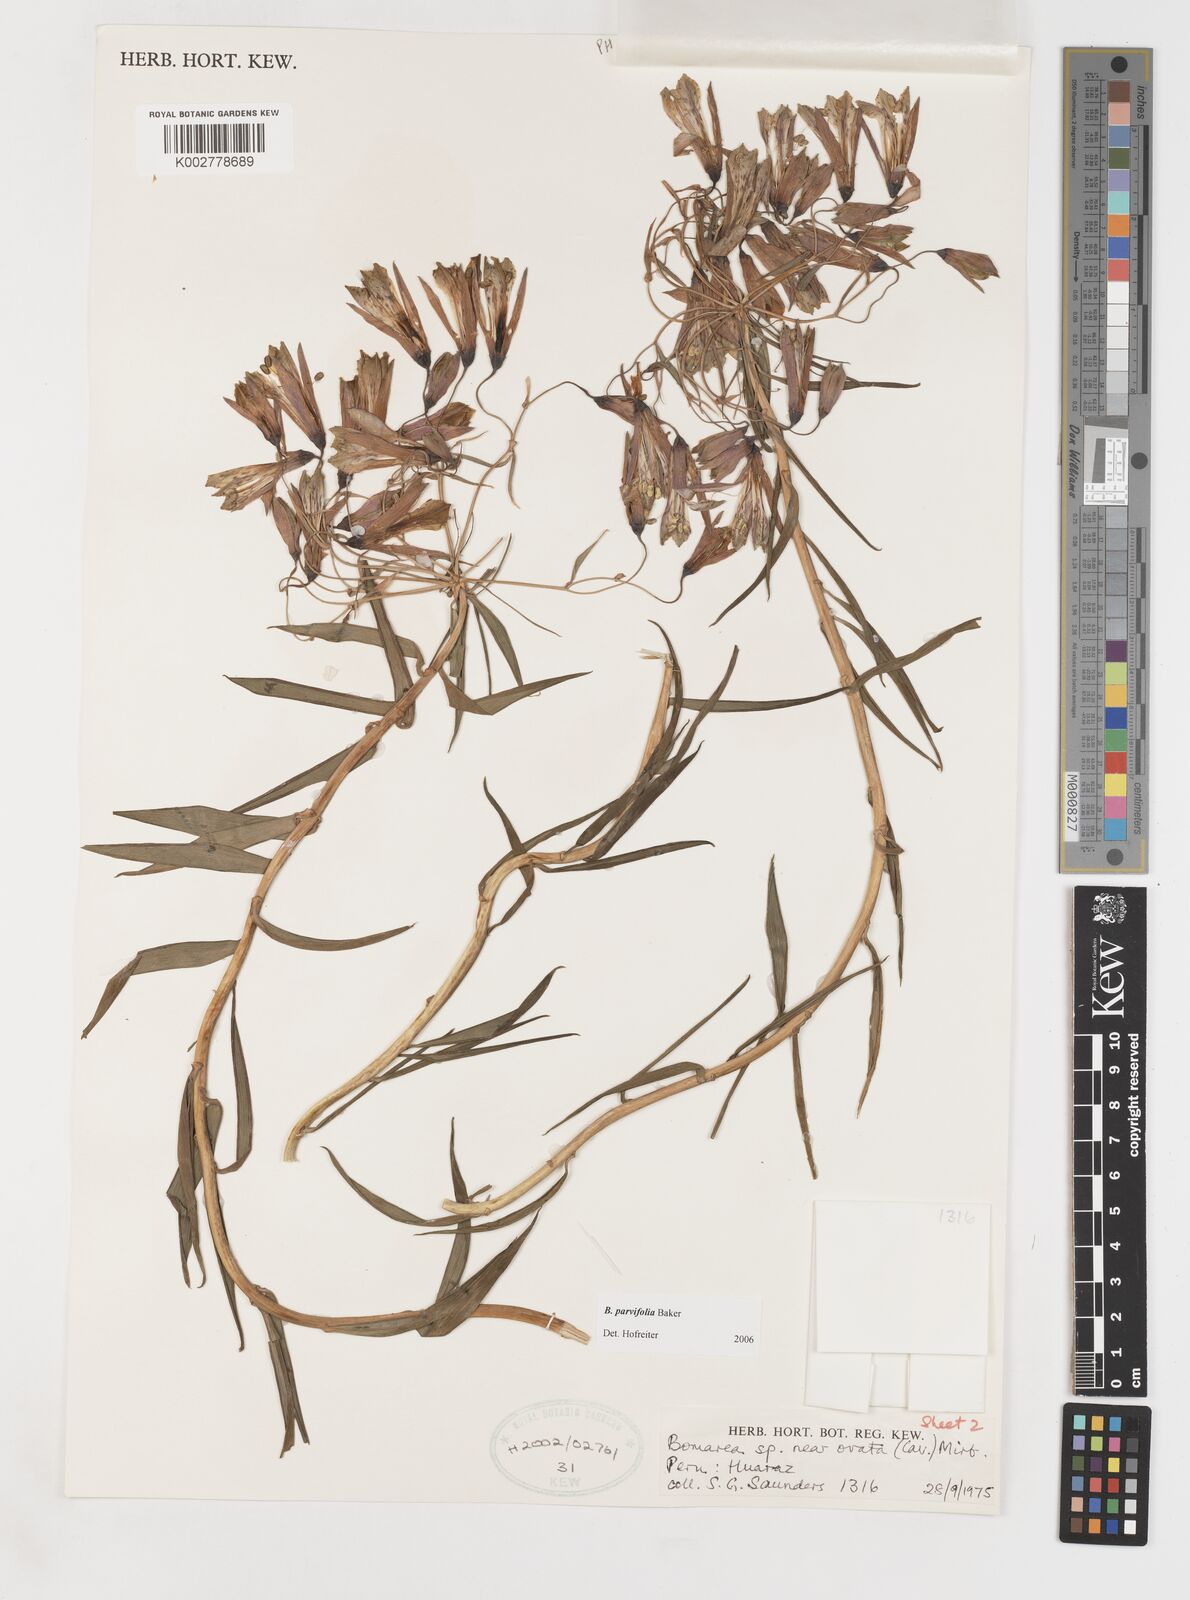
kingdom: Plantae
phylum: Tracheophyta
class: Liliopsida
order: Liliales
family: Alstroemeriaceae
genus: Bomarea
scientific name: Bomarea parvifolia
